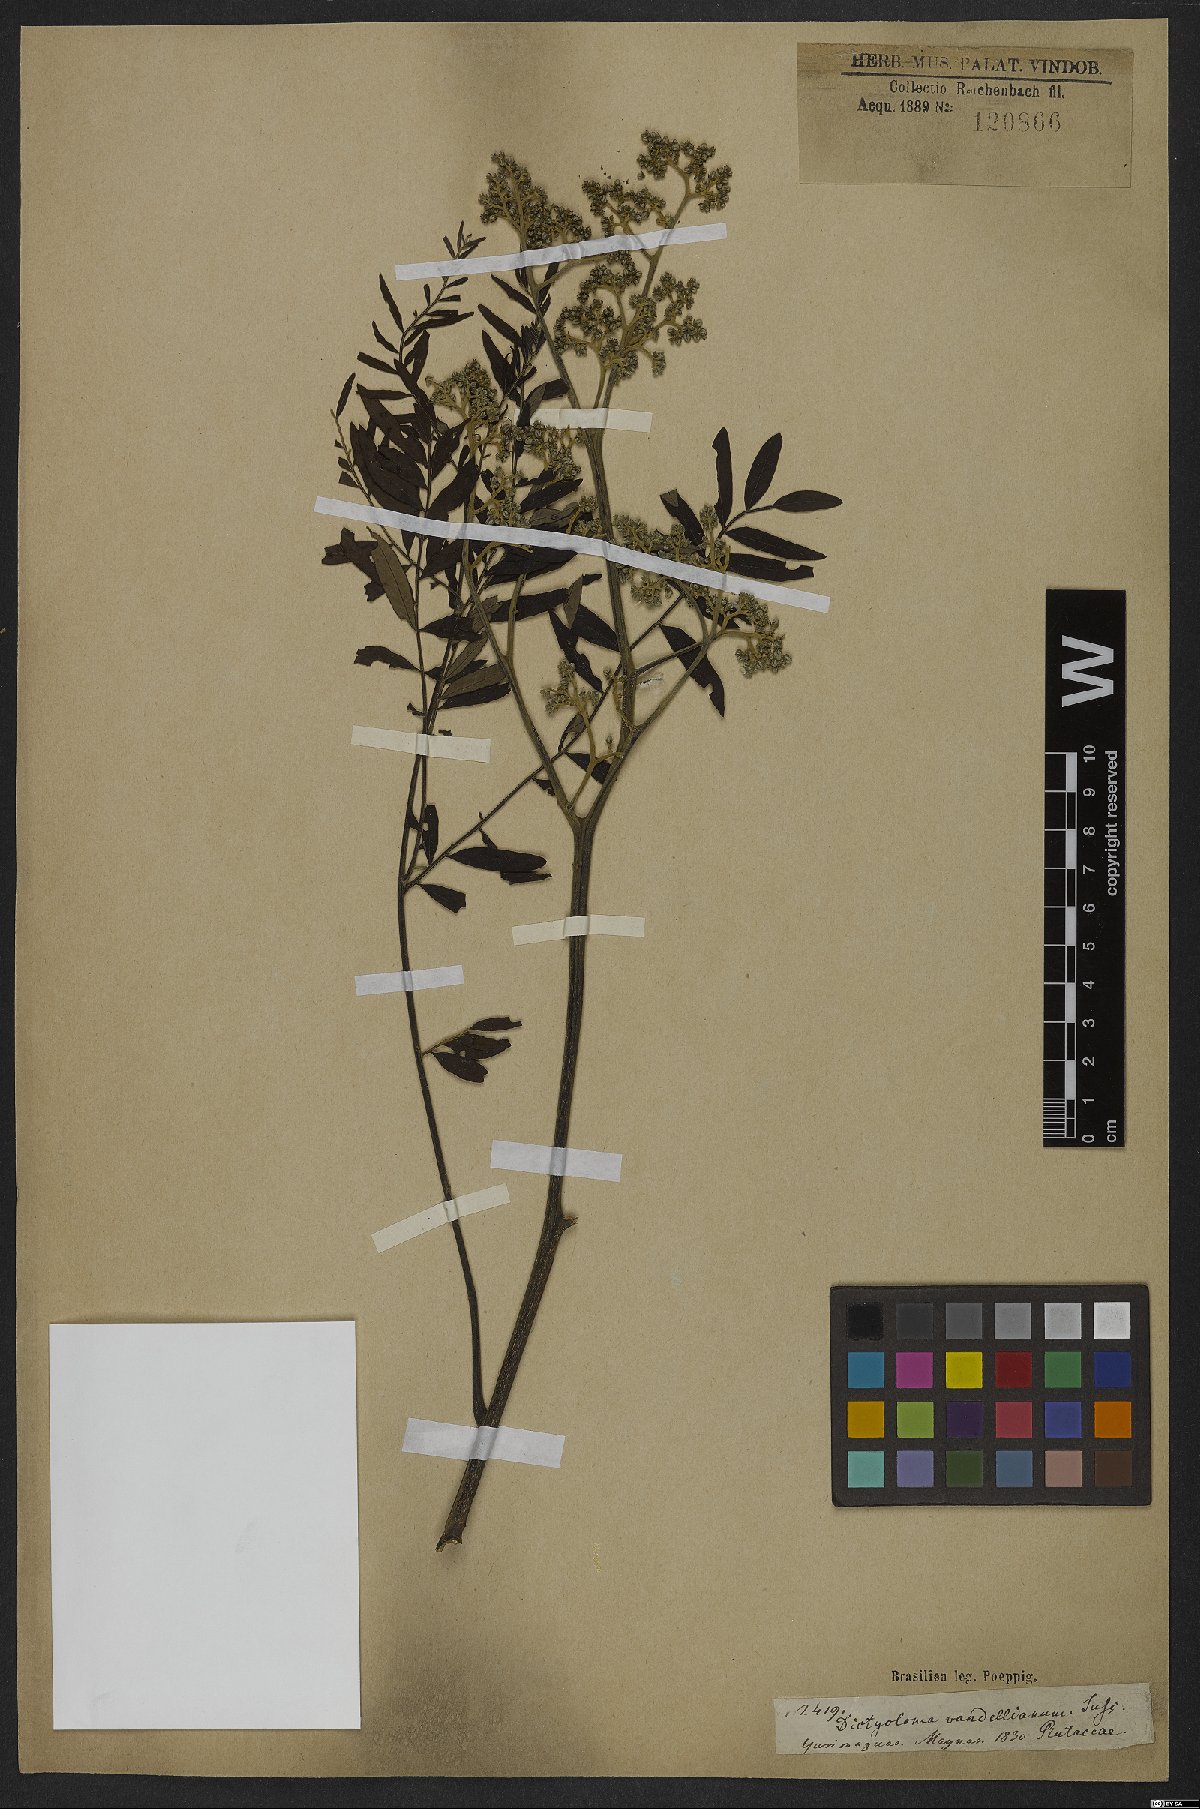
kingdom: Plantae
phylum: Tracheophyta
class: Magnoliopsida
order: Sapindales
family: Rutaceae
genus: Dictyoloma
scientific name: Dictyoloma vandellianum
